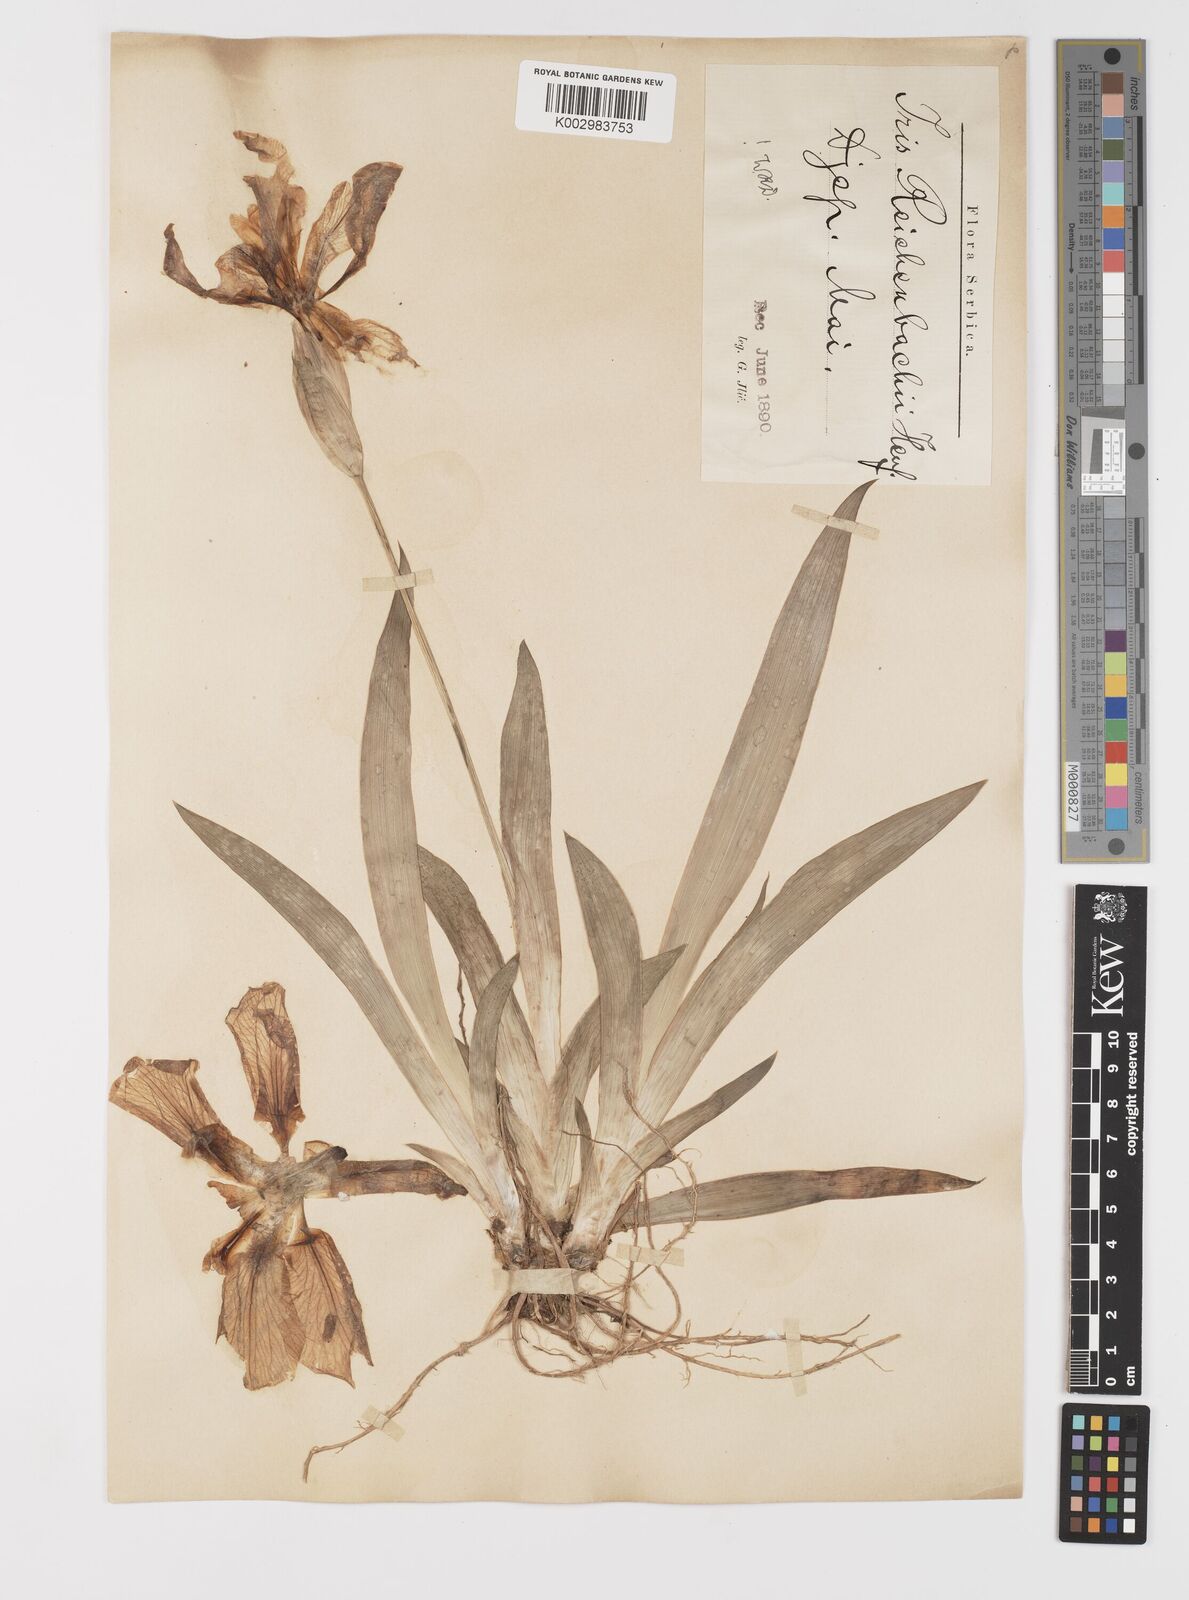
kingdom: Plantae
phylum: Tracheophyta
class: Liliopsida
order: Asparagales
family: Iridaceae
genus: Iris
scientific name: Iris reichenbachii
